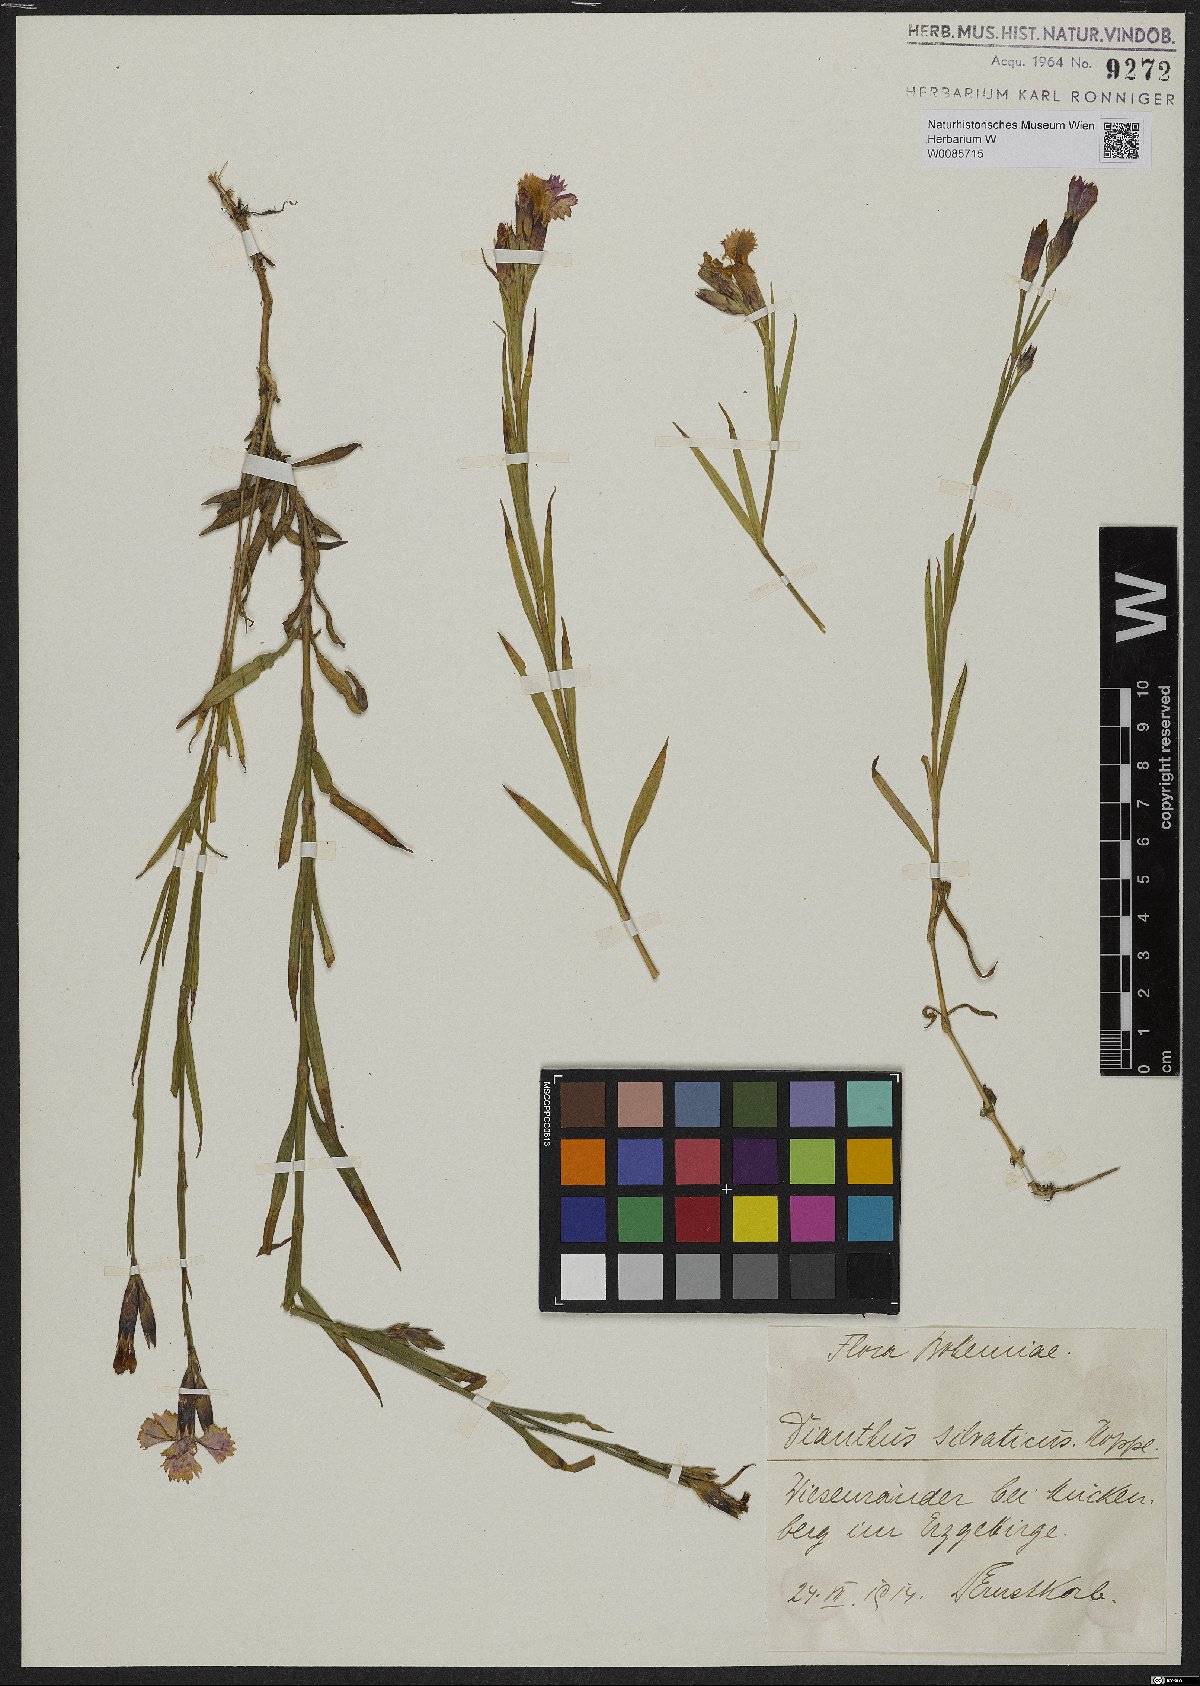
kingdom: Plantae
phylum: Tracheophyta
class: Magnoliopsida
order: Caryophyllales
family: Caryophyllaceae
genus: Dianthus
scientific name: Dianthus seguieri
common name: Ragged pink
